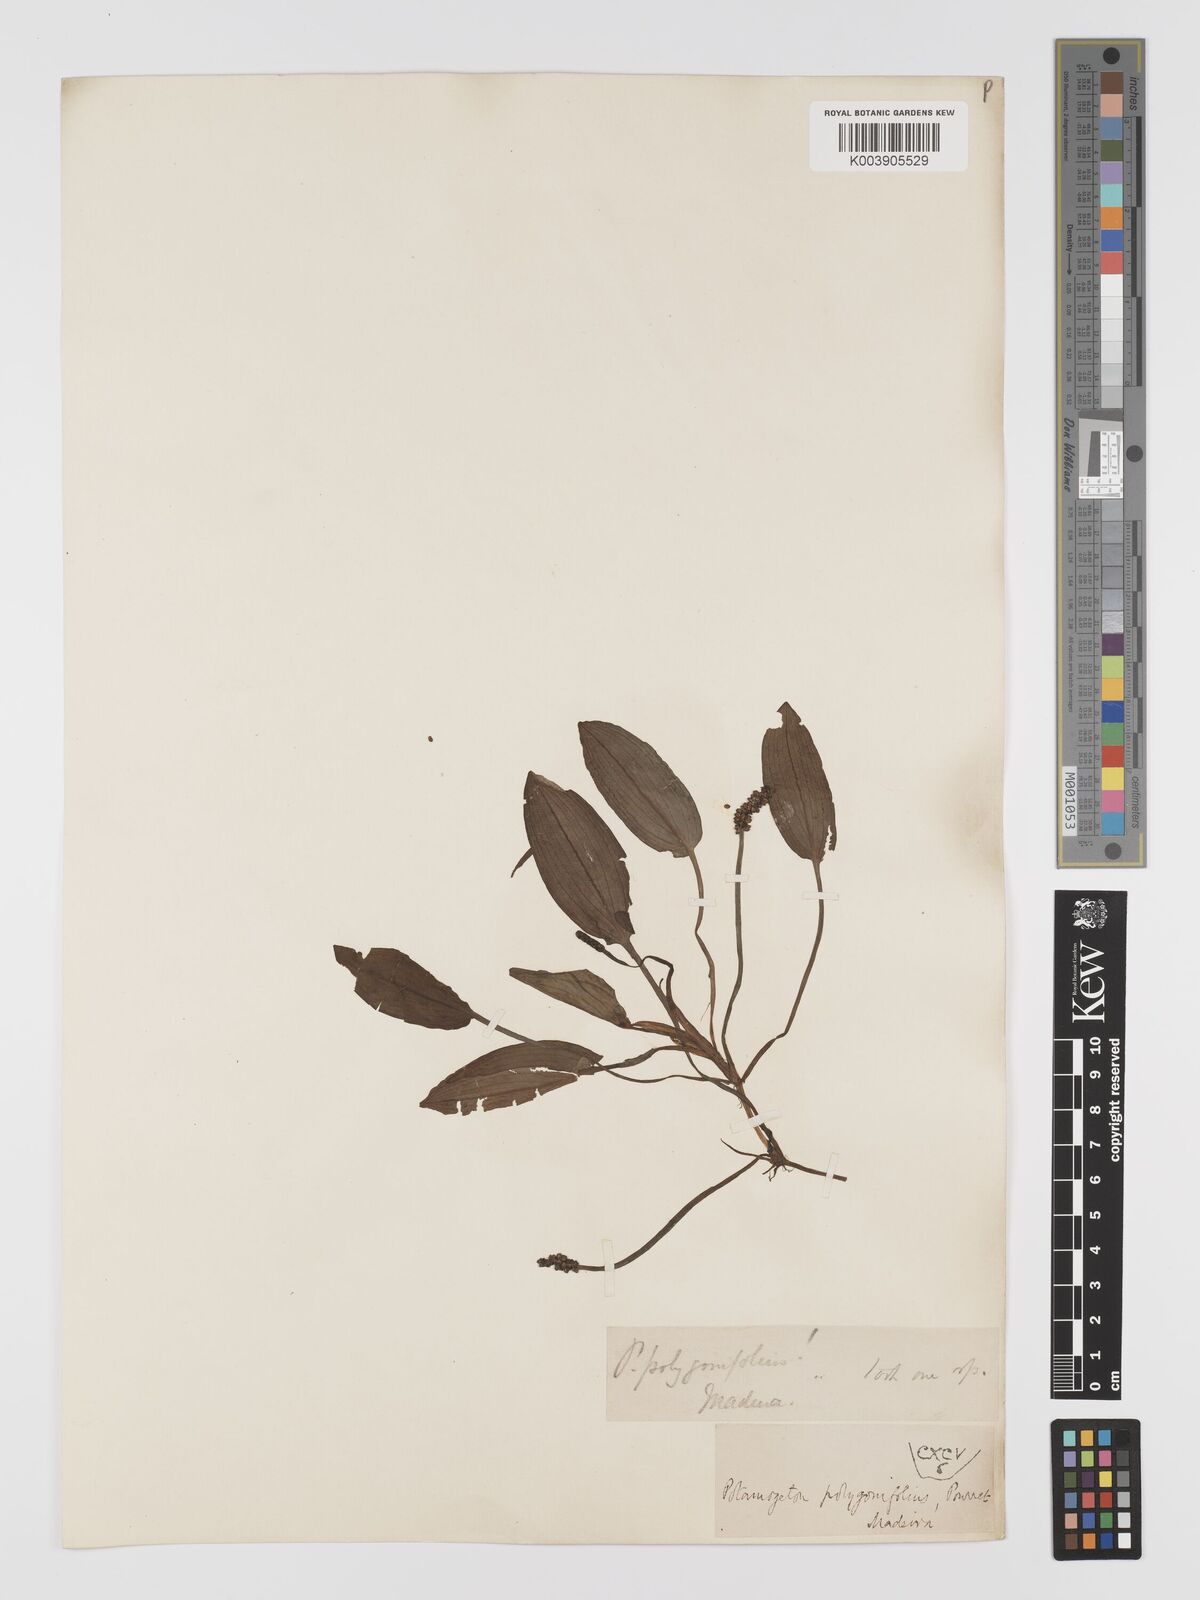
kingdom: Plantae
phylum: Tracheophyta
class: Liliopsida
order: Alismatales
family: Potamogetonaceae
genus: Potamogeton
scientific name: Potamogeton polygonifolius
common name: Bog pondweed
